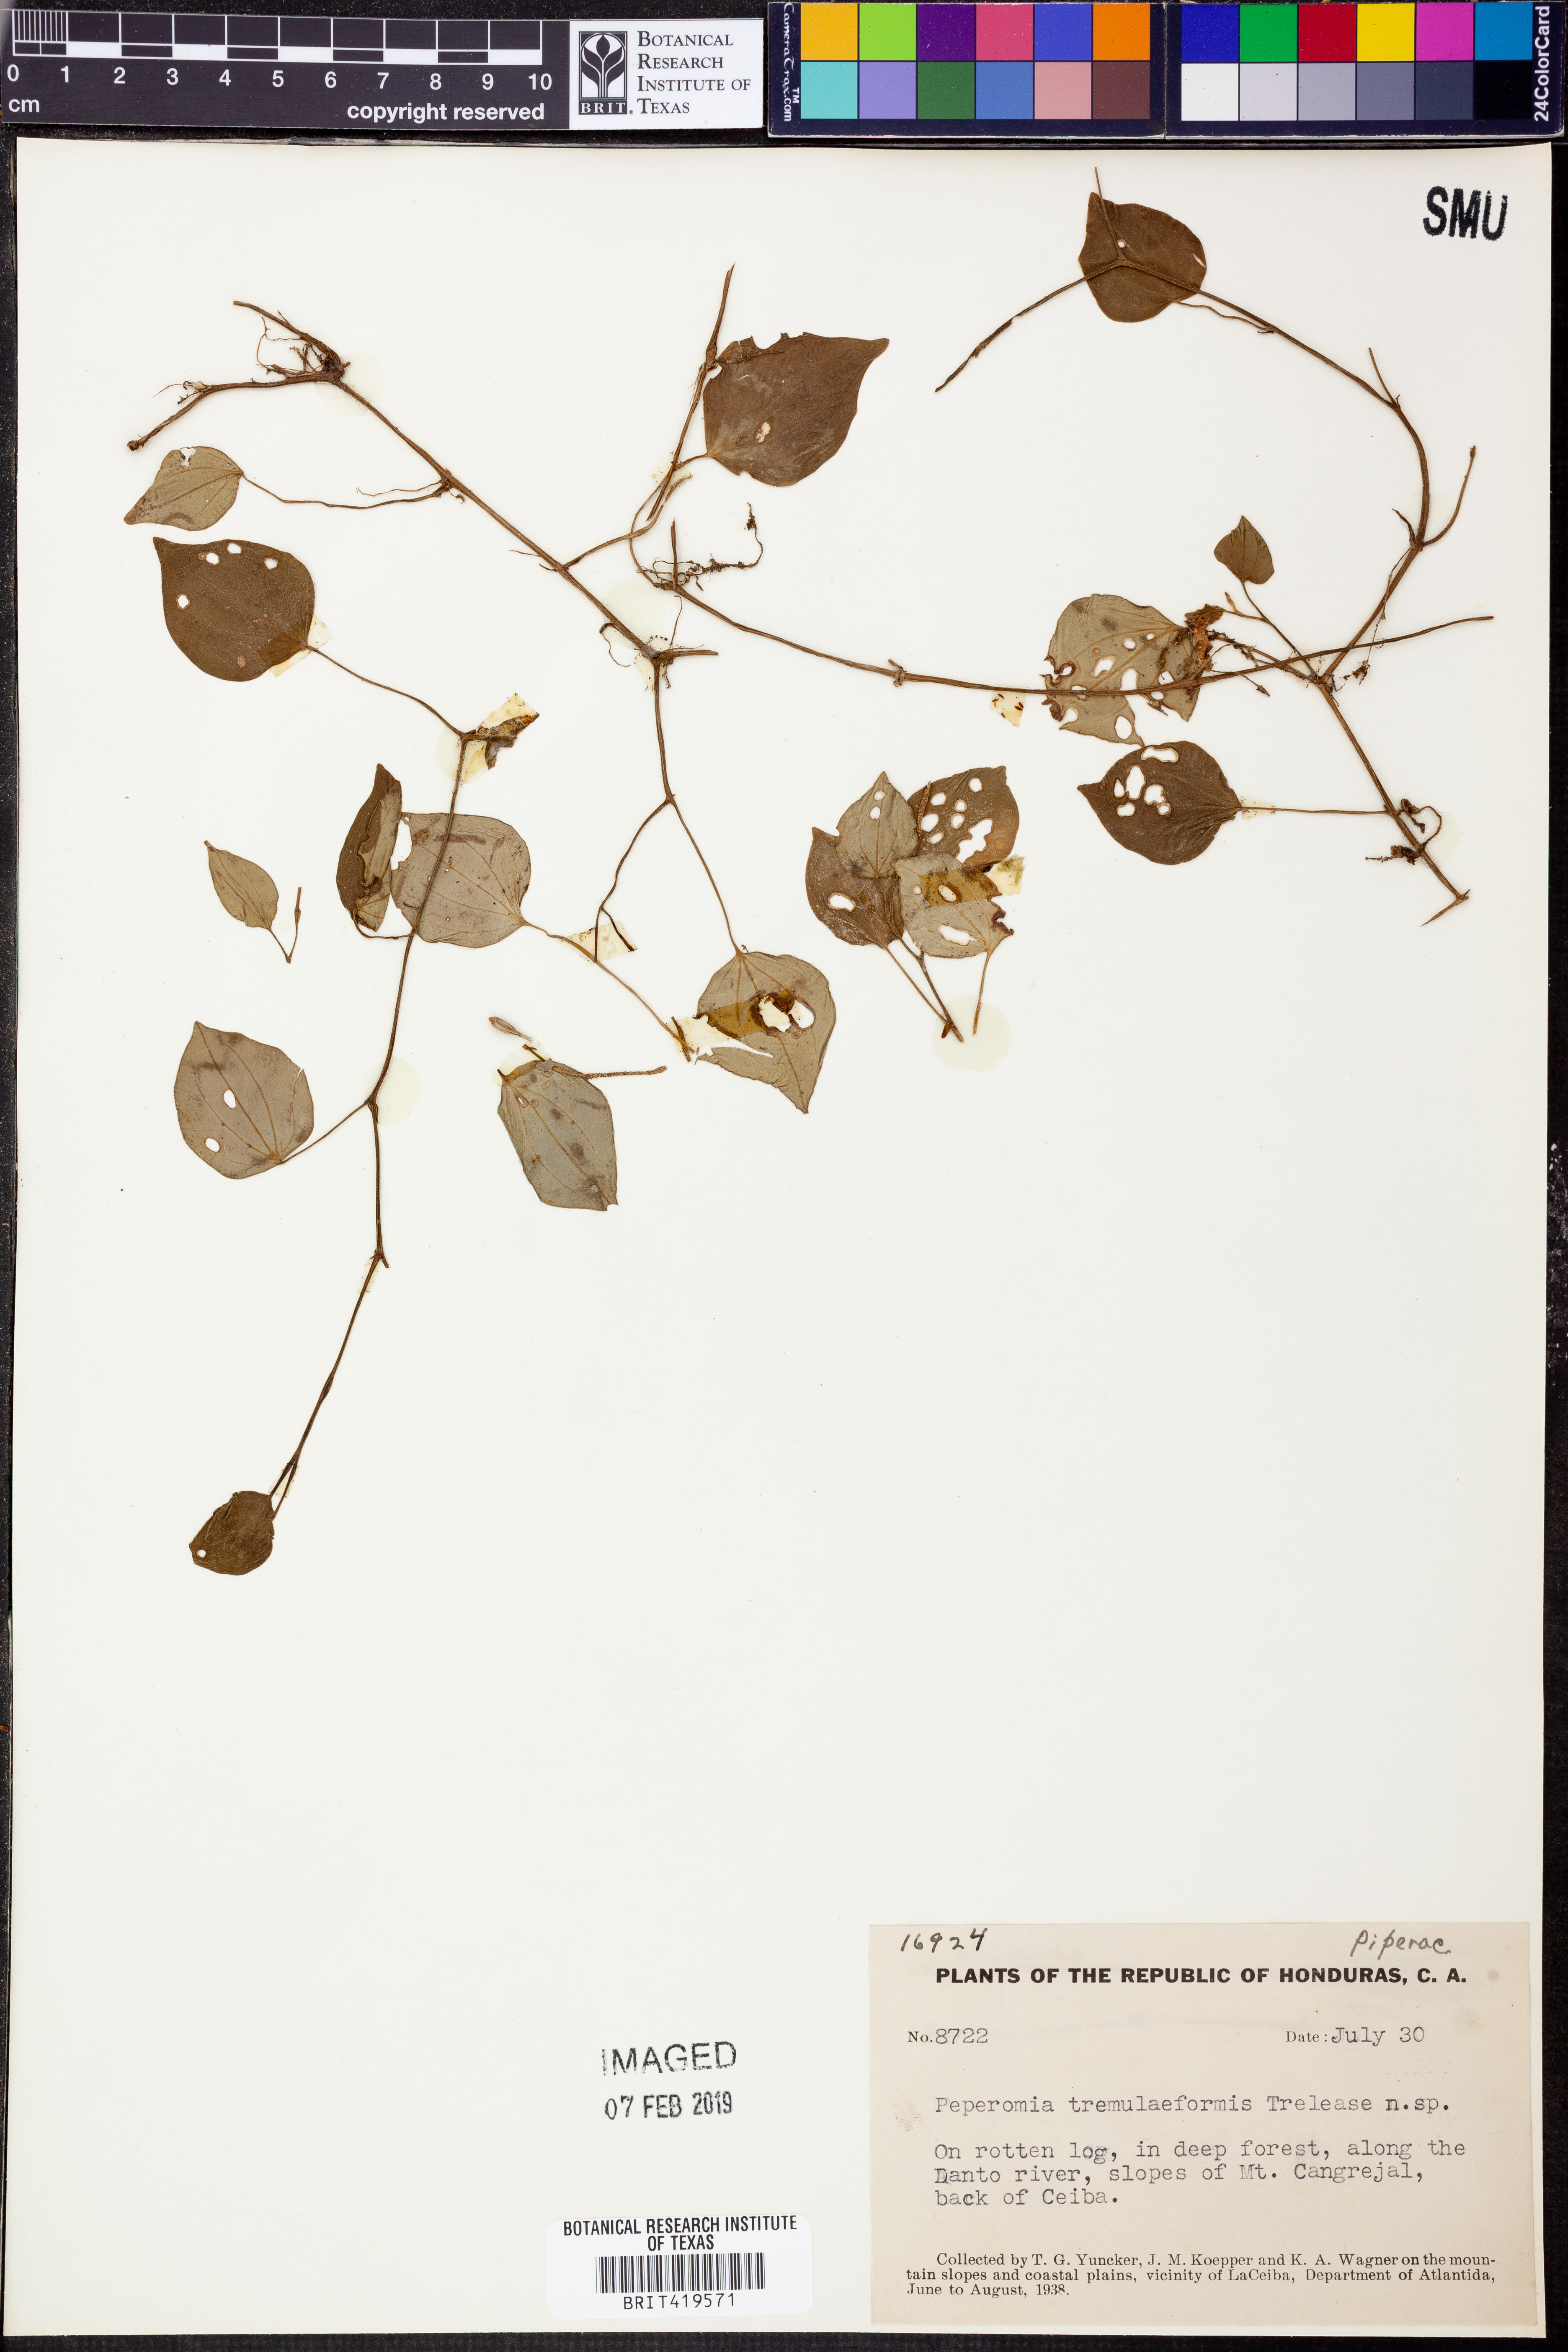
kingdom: Plantae
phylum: Tracheophyta
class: Magnoliopsida
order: Piperales
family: Piperaceae
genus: Peperomia
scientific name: Peperomia urocarpa
